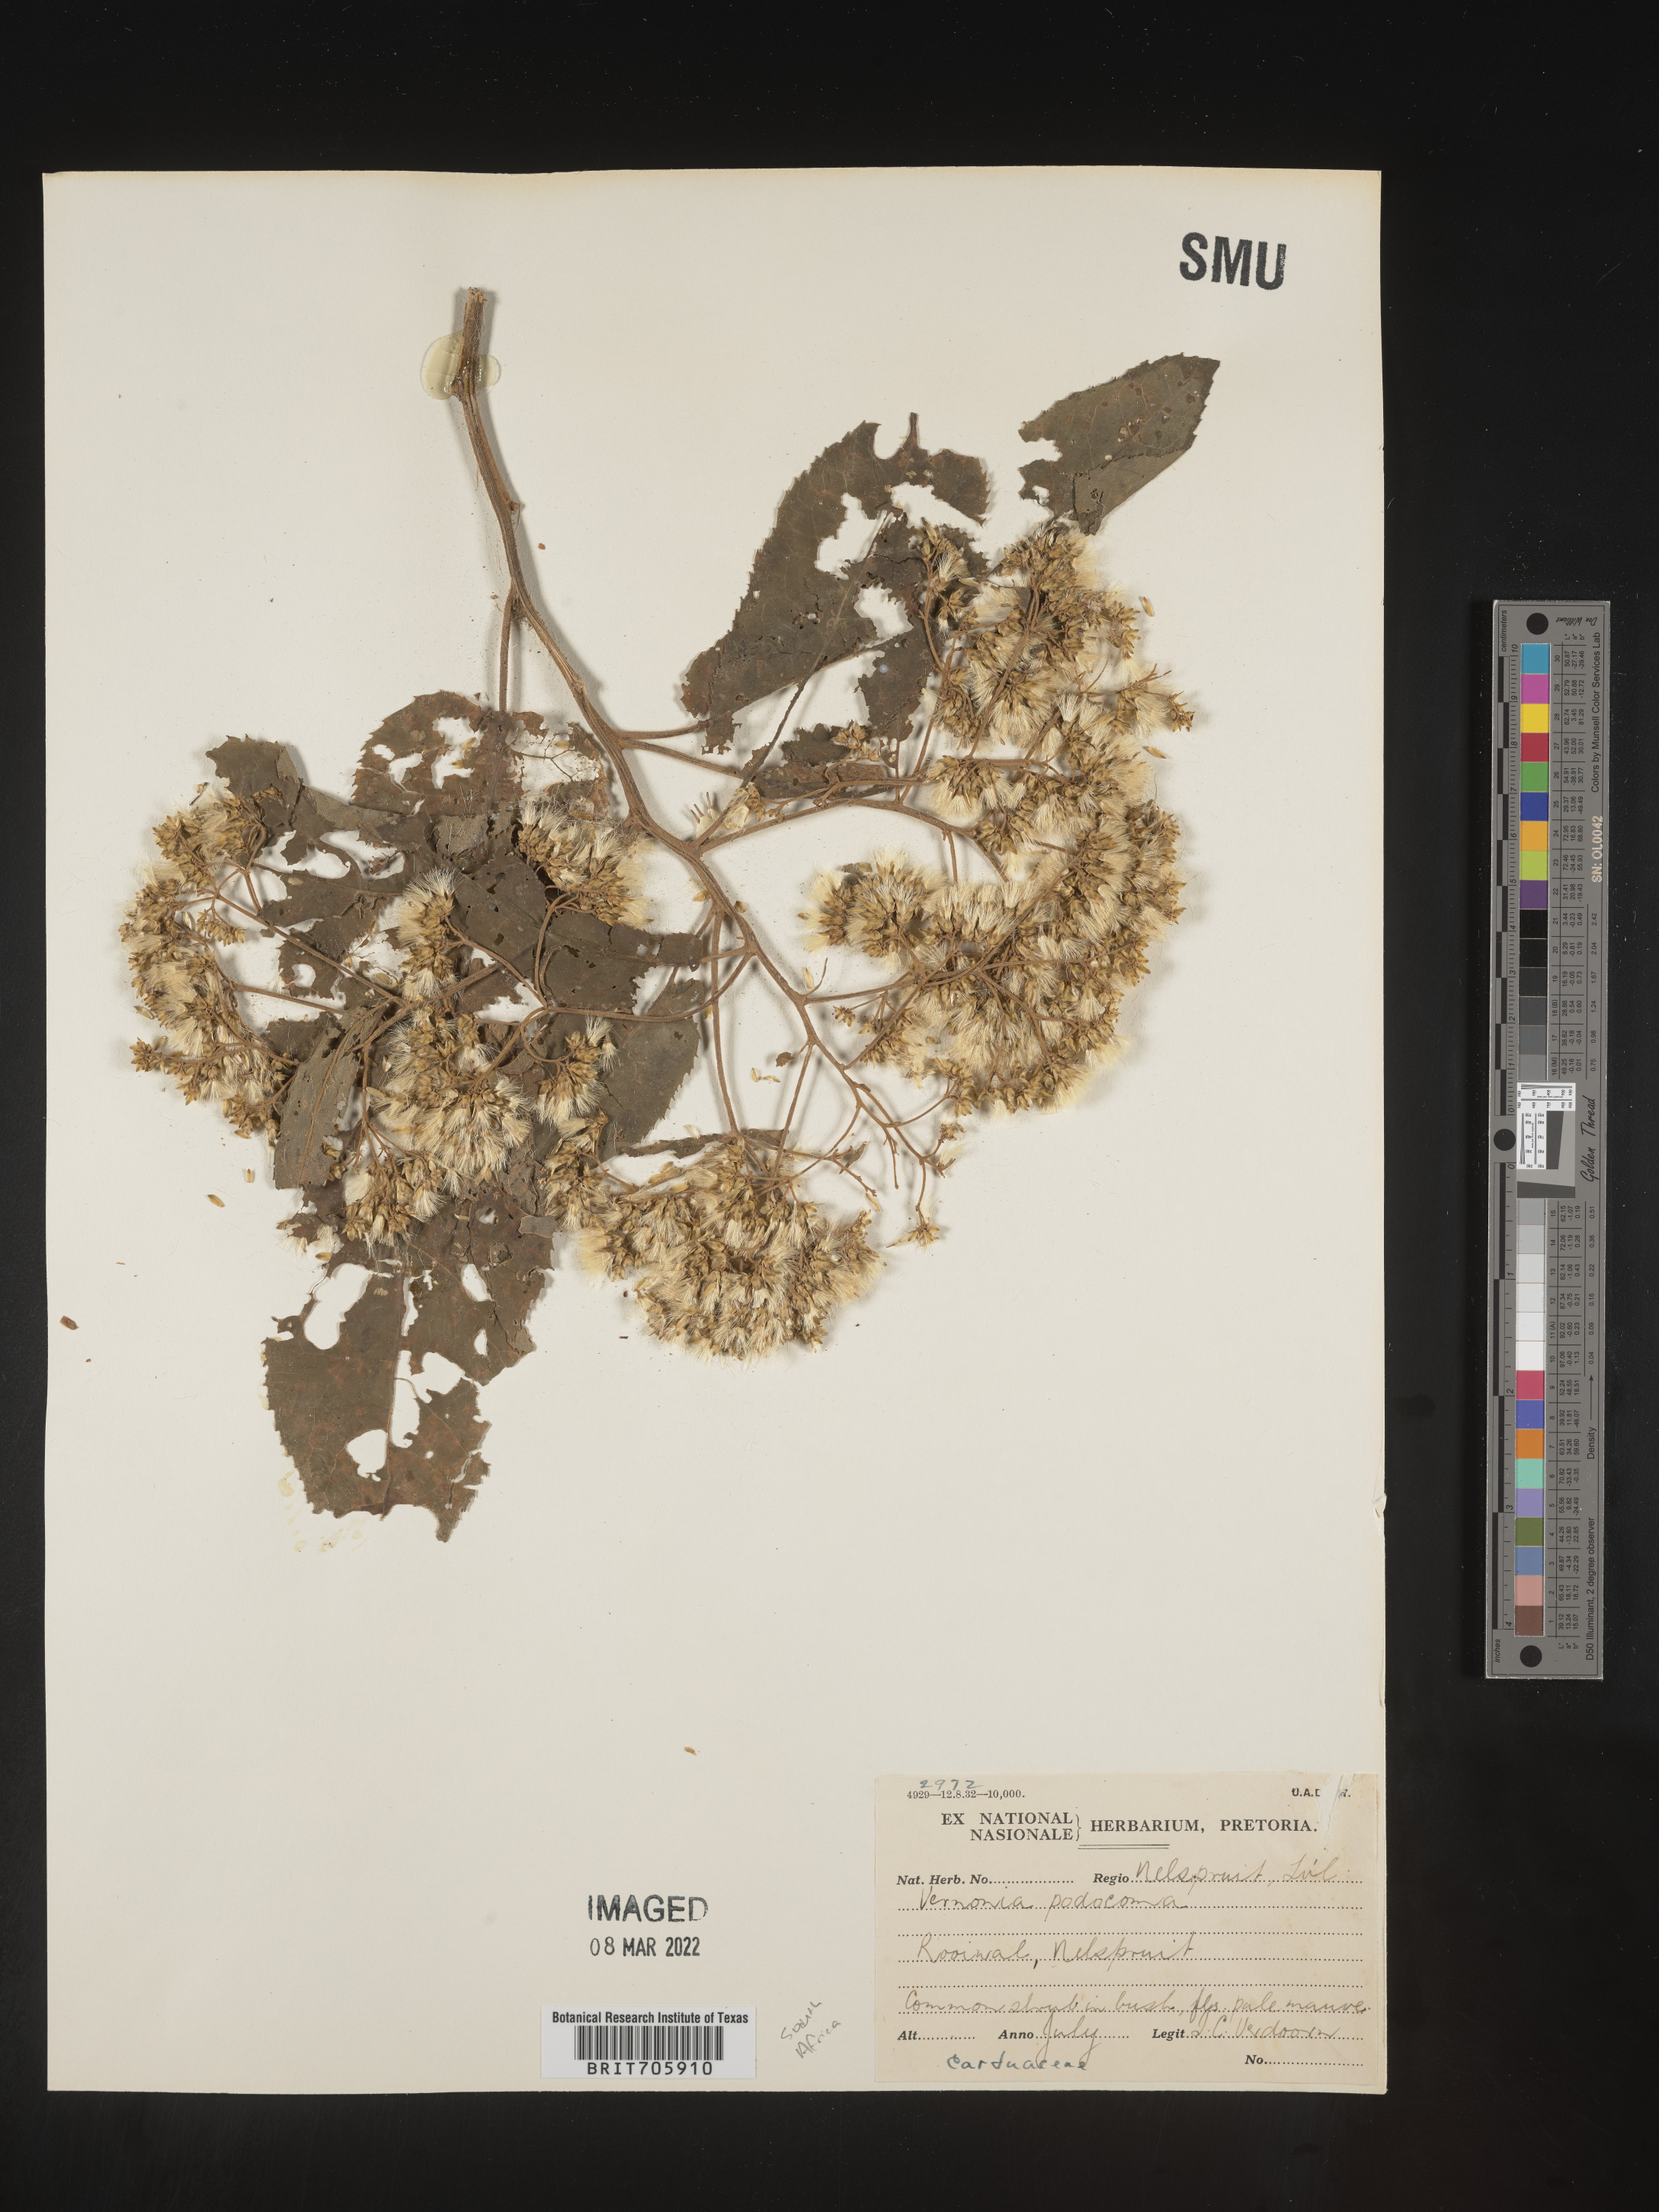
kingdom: Plantae
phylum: Tracheophyta
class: Magnoliopsida
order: Asterales
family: Asteraceae
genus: Vernonia
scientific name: Vernonia
